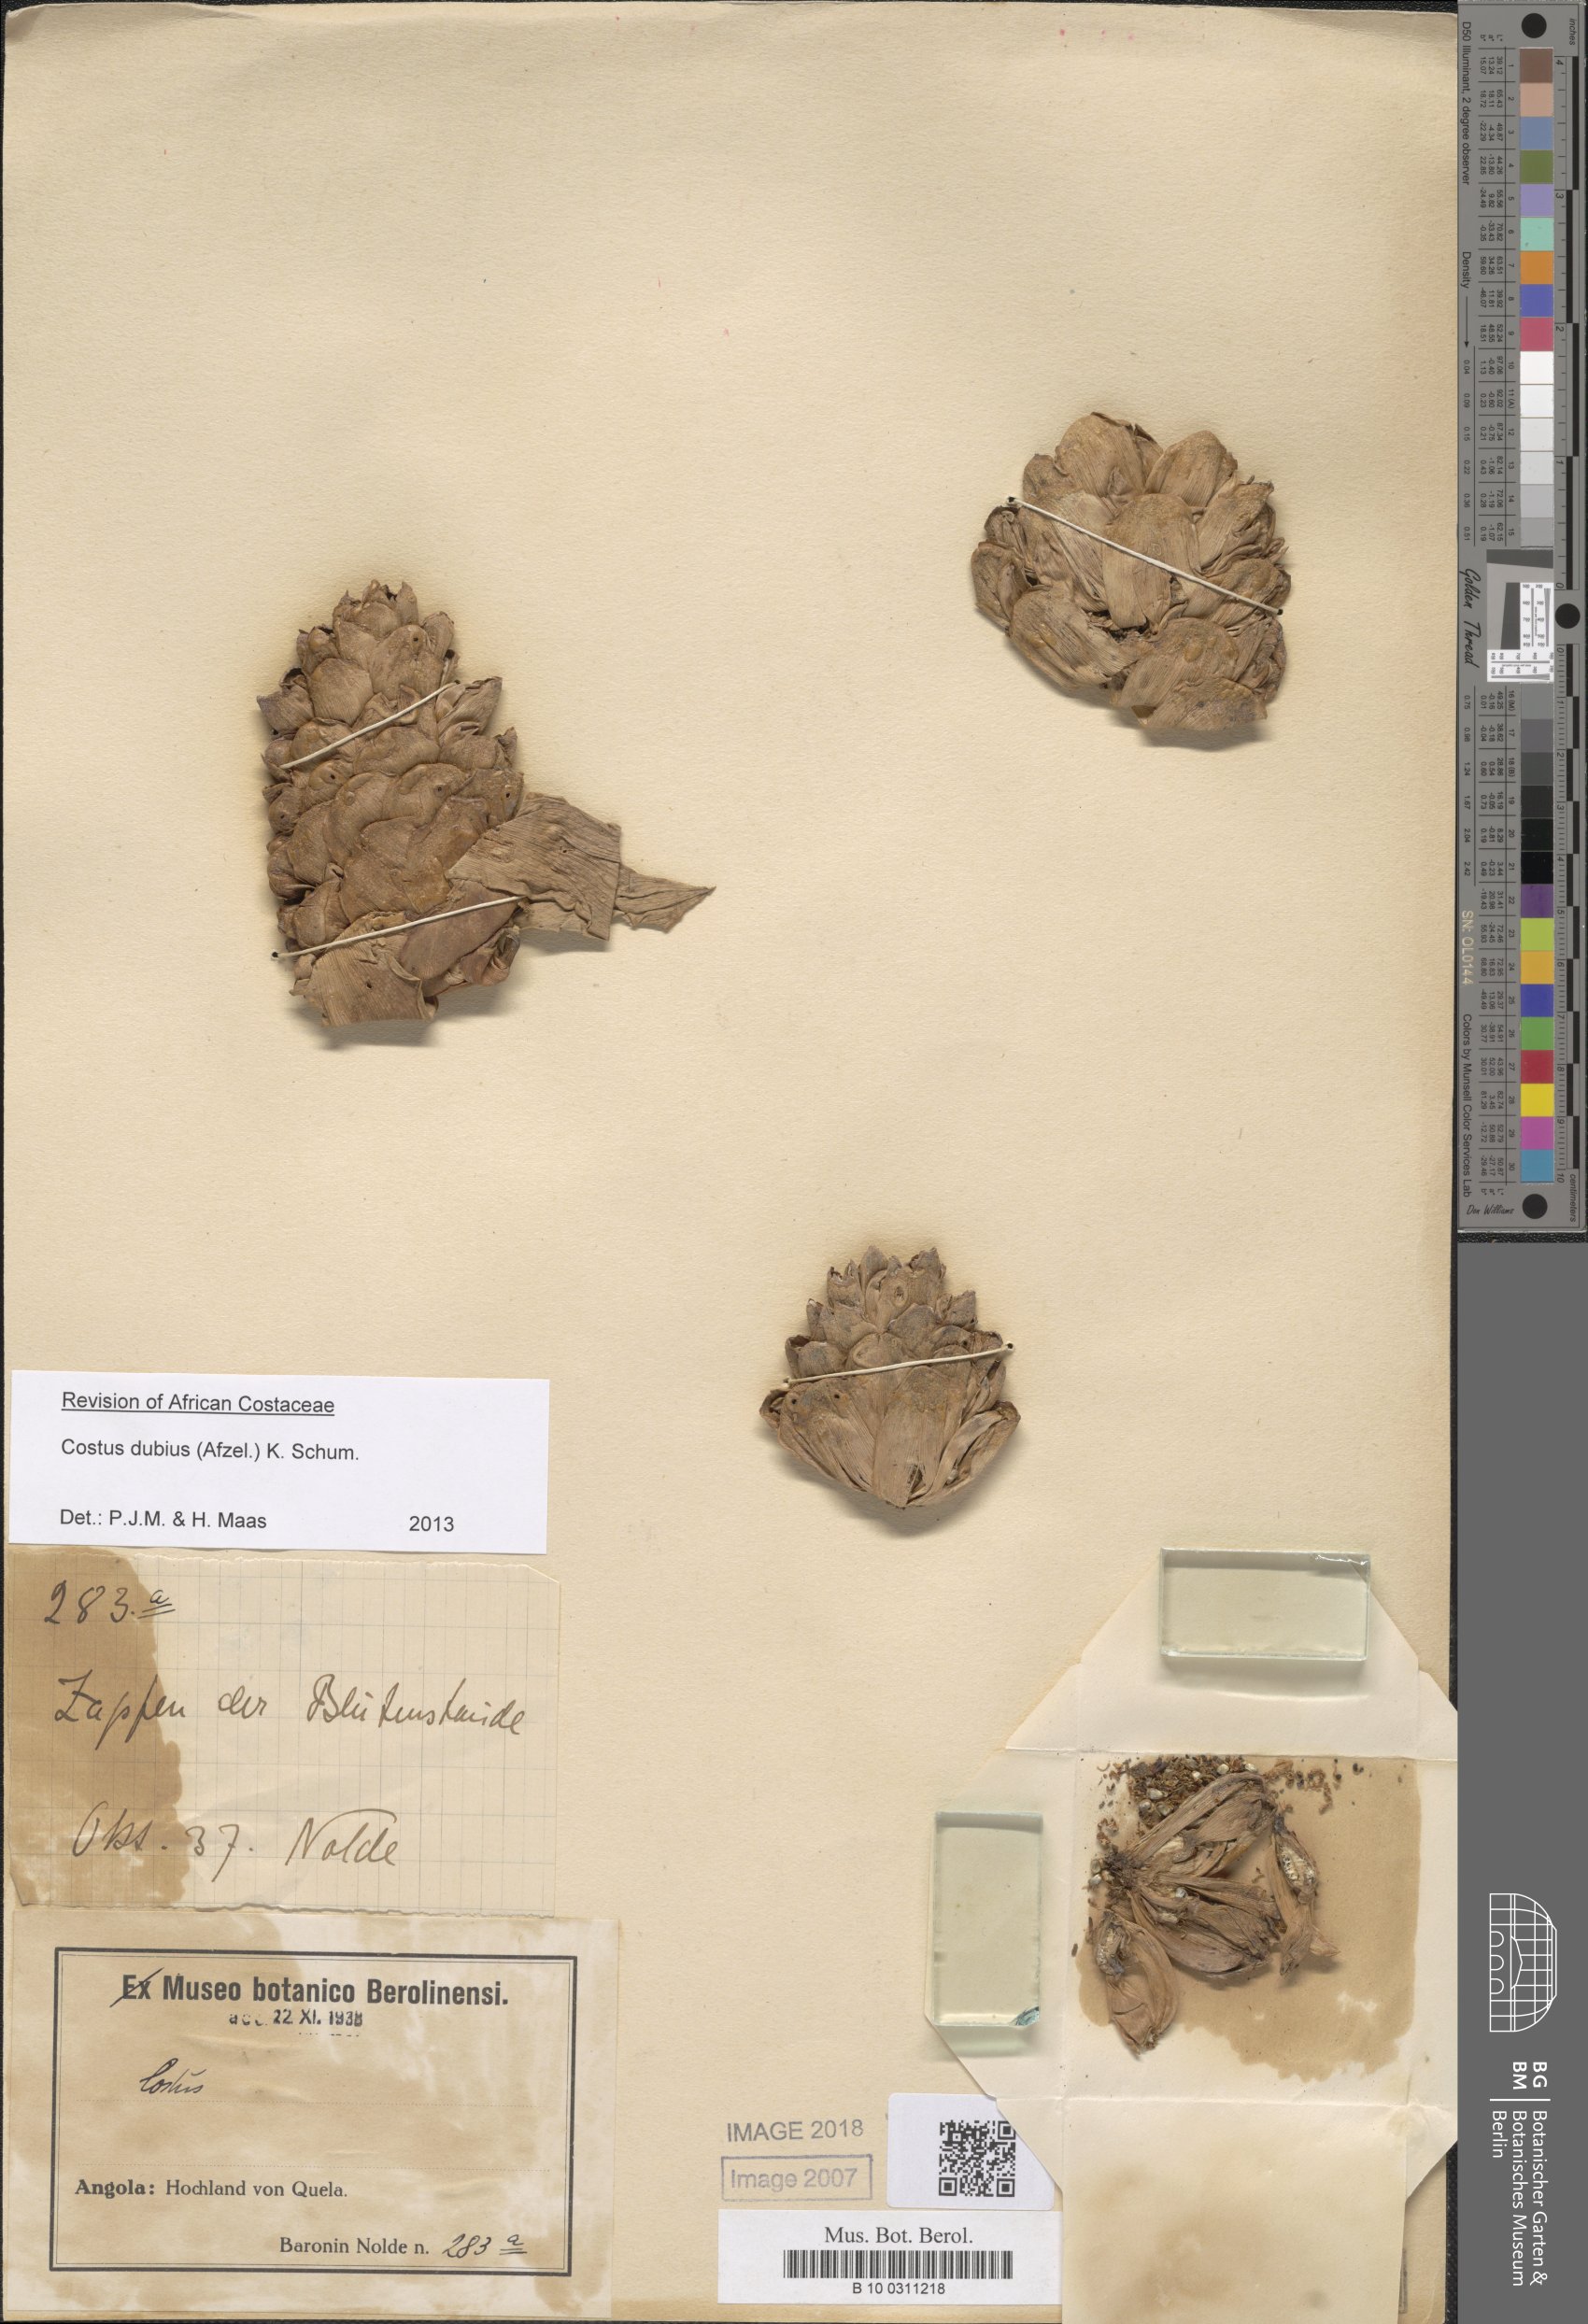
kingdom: Plantae
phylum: Tracheophyta
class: Liliopsida
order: Zingiberales
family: Costaceae
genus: Costus
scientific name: Costus dubius
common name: Costus
